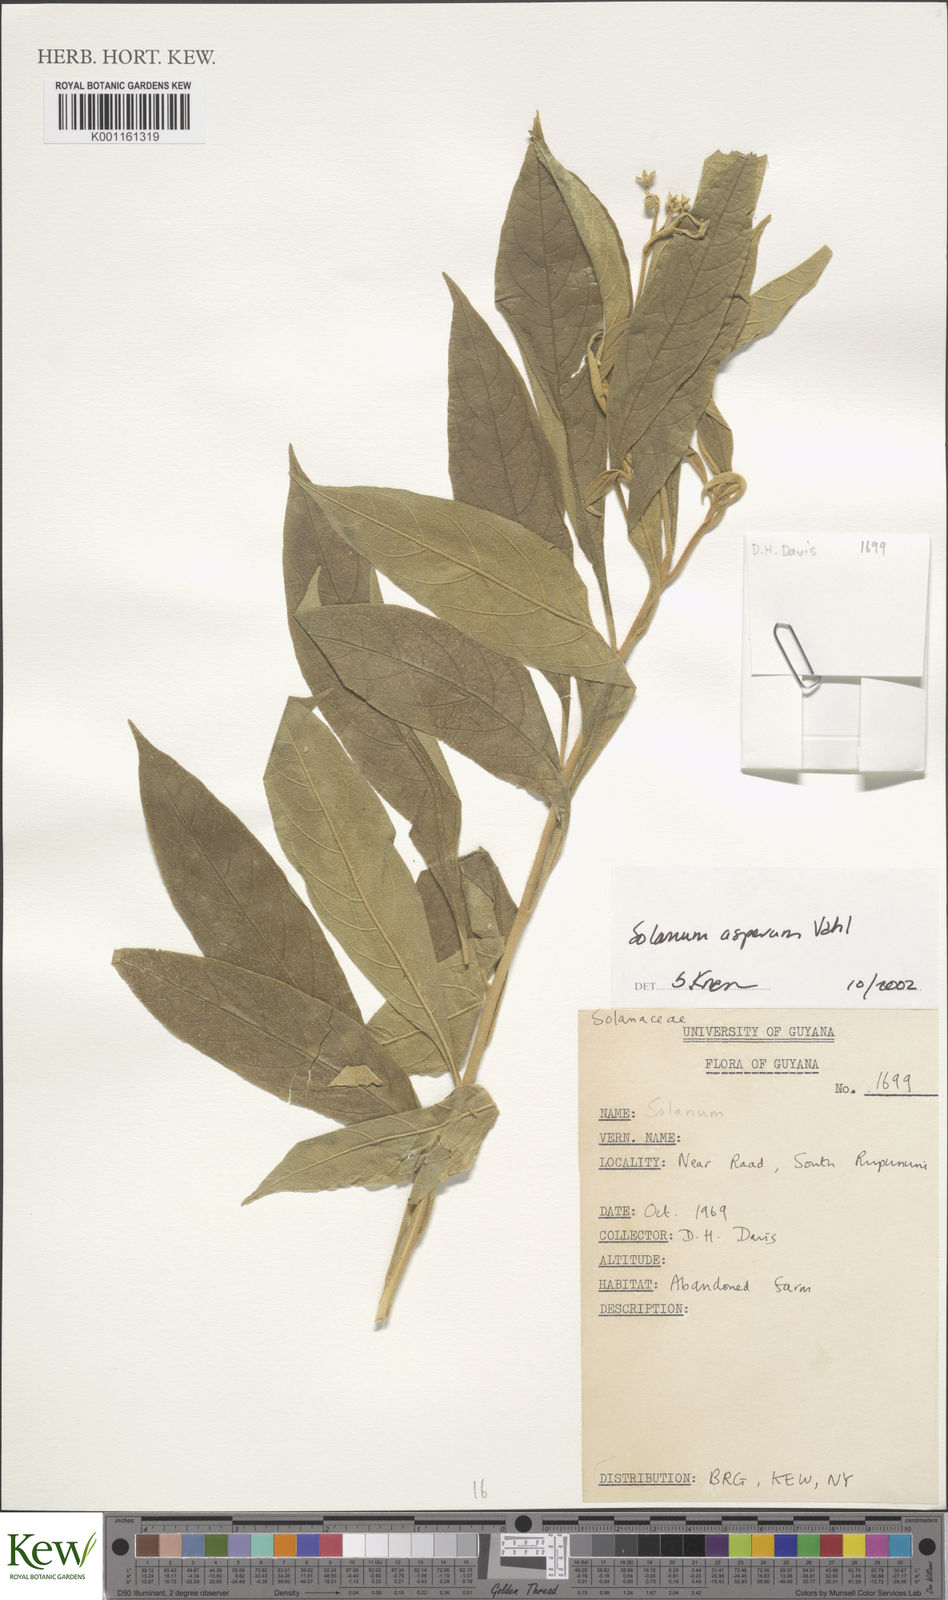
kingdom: Plantae
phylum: Tracheophyta
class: Magnoliopsida
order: Solanales
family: Solanaceae
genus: Solanum
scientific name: Solanum asperum
